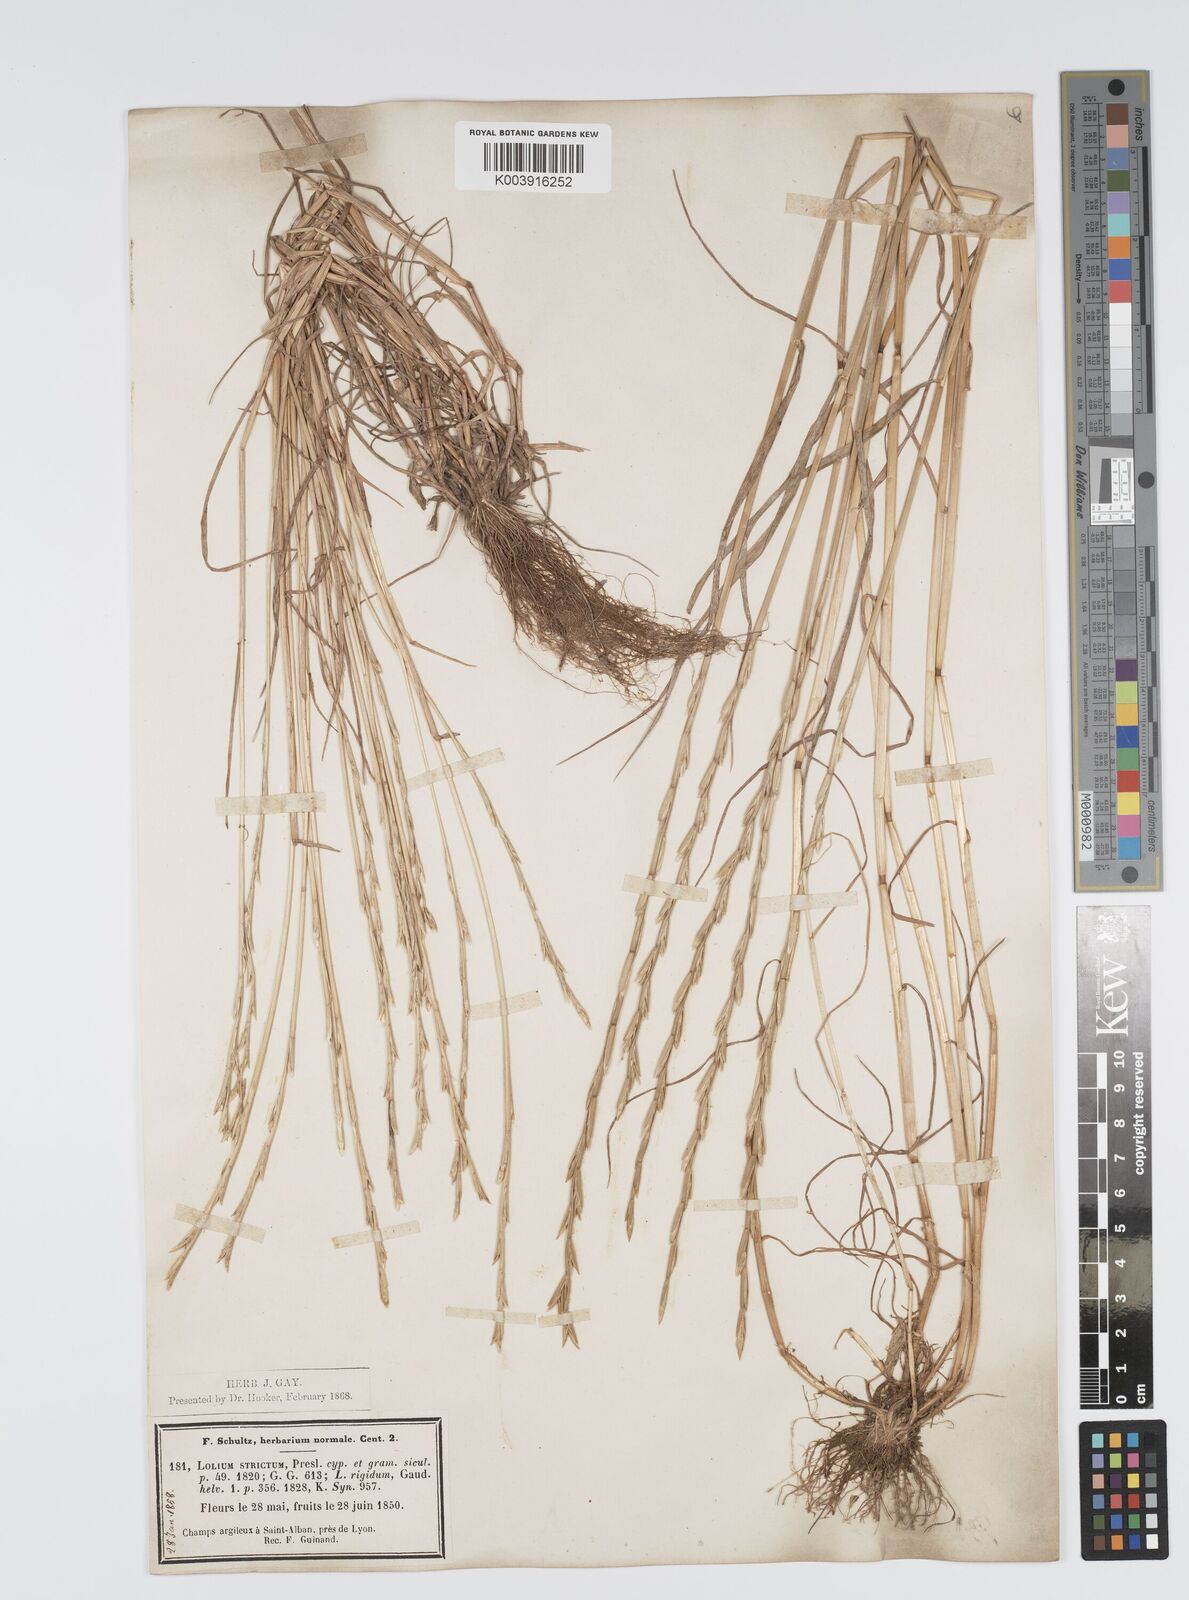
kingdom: Plantae
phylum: Tracheophyta
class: Liliopsida
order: Poales
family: Poaceae
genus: Lolium
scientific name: Lolium rigidum
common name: Wimmera ryegrass
